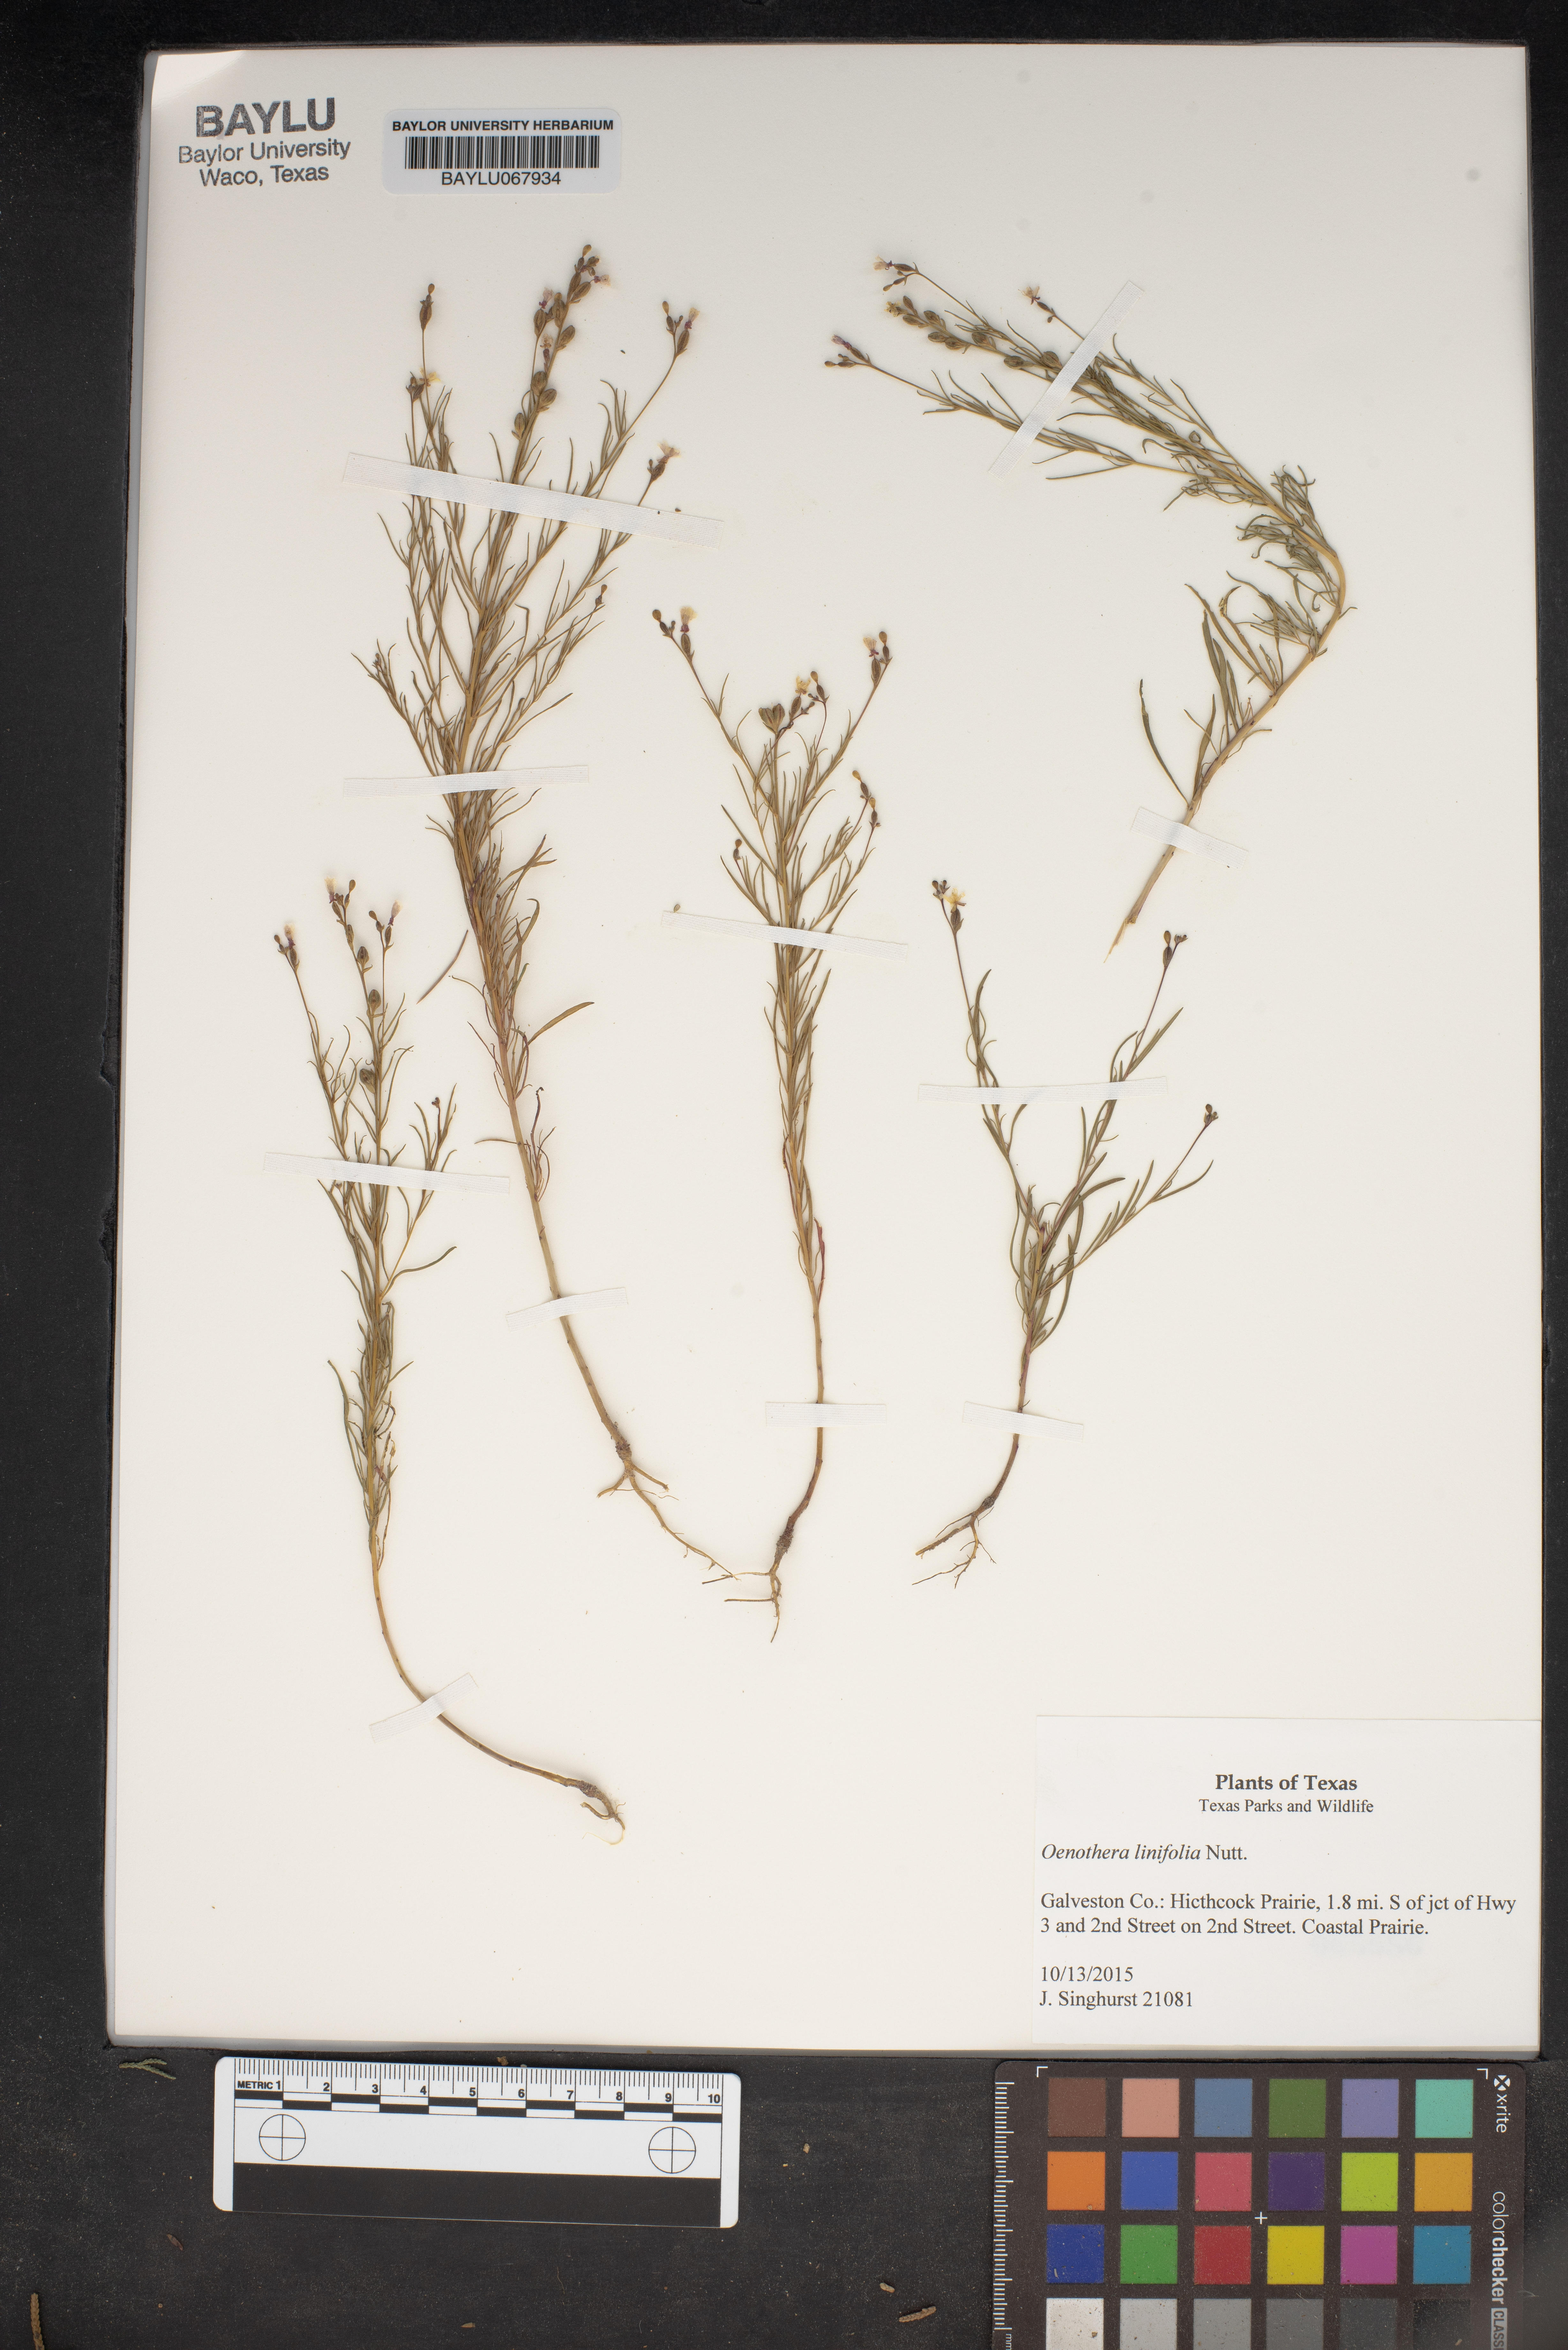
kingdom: Plantae
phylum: Tracheophyta
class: Magnoliopsida
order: Myrtales
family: Onagraceae
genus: Oenothera
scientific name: Oenothera linifolia
